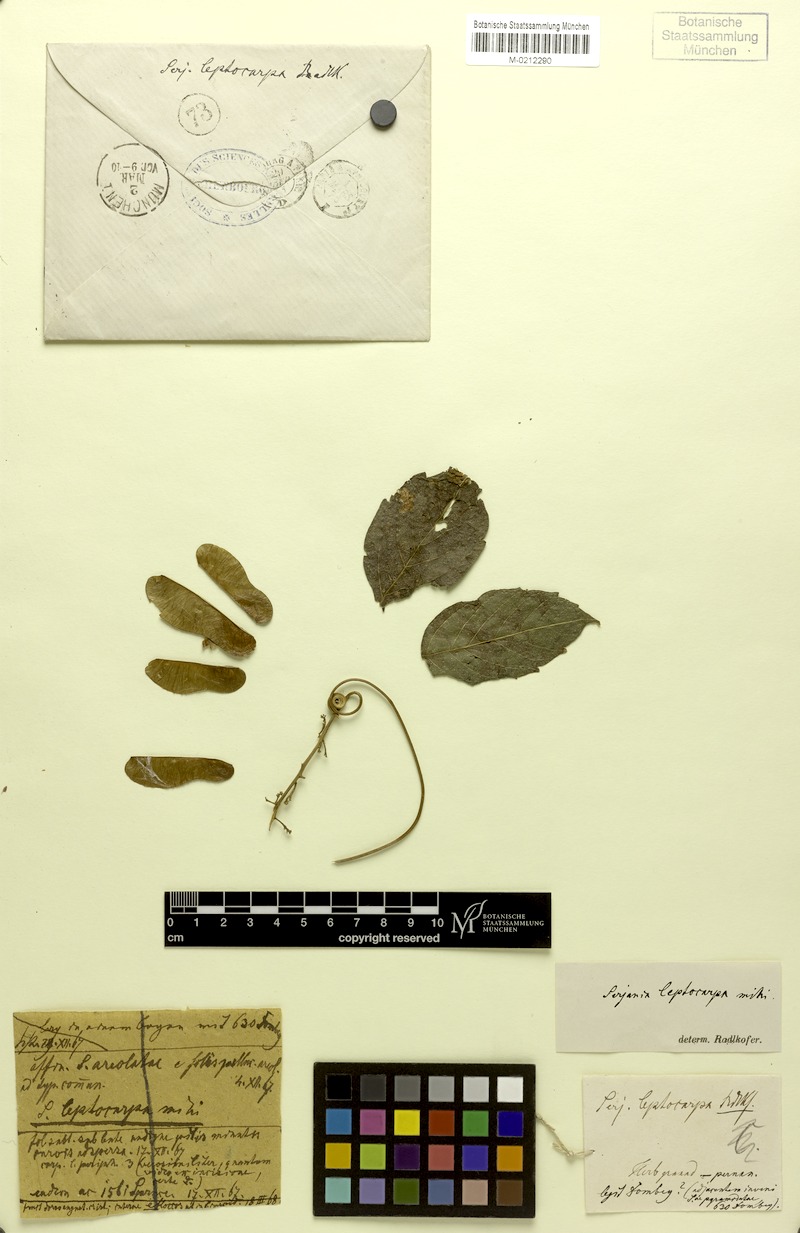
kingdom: Plantae
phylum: Tracheophyta
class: Magnoliopsida
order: Sapindales
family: Sapindaceae
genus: Serjania
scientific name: Serjania leptocarpa
